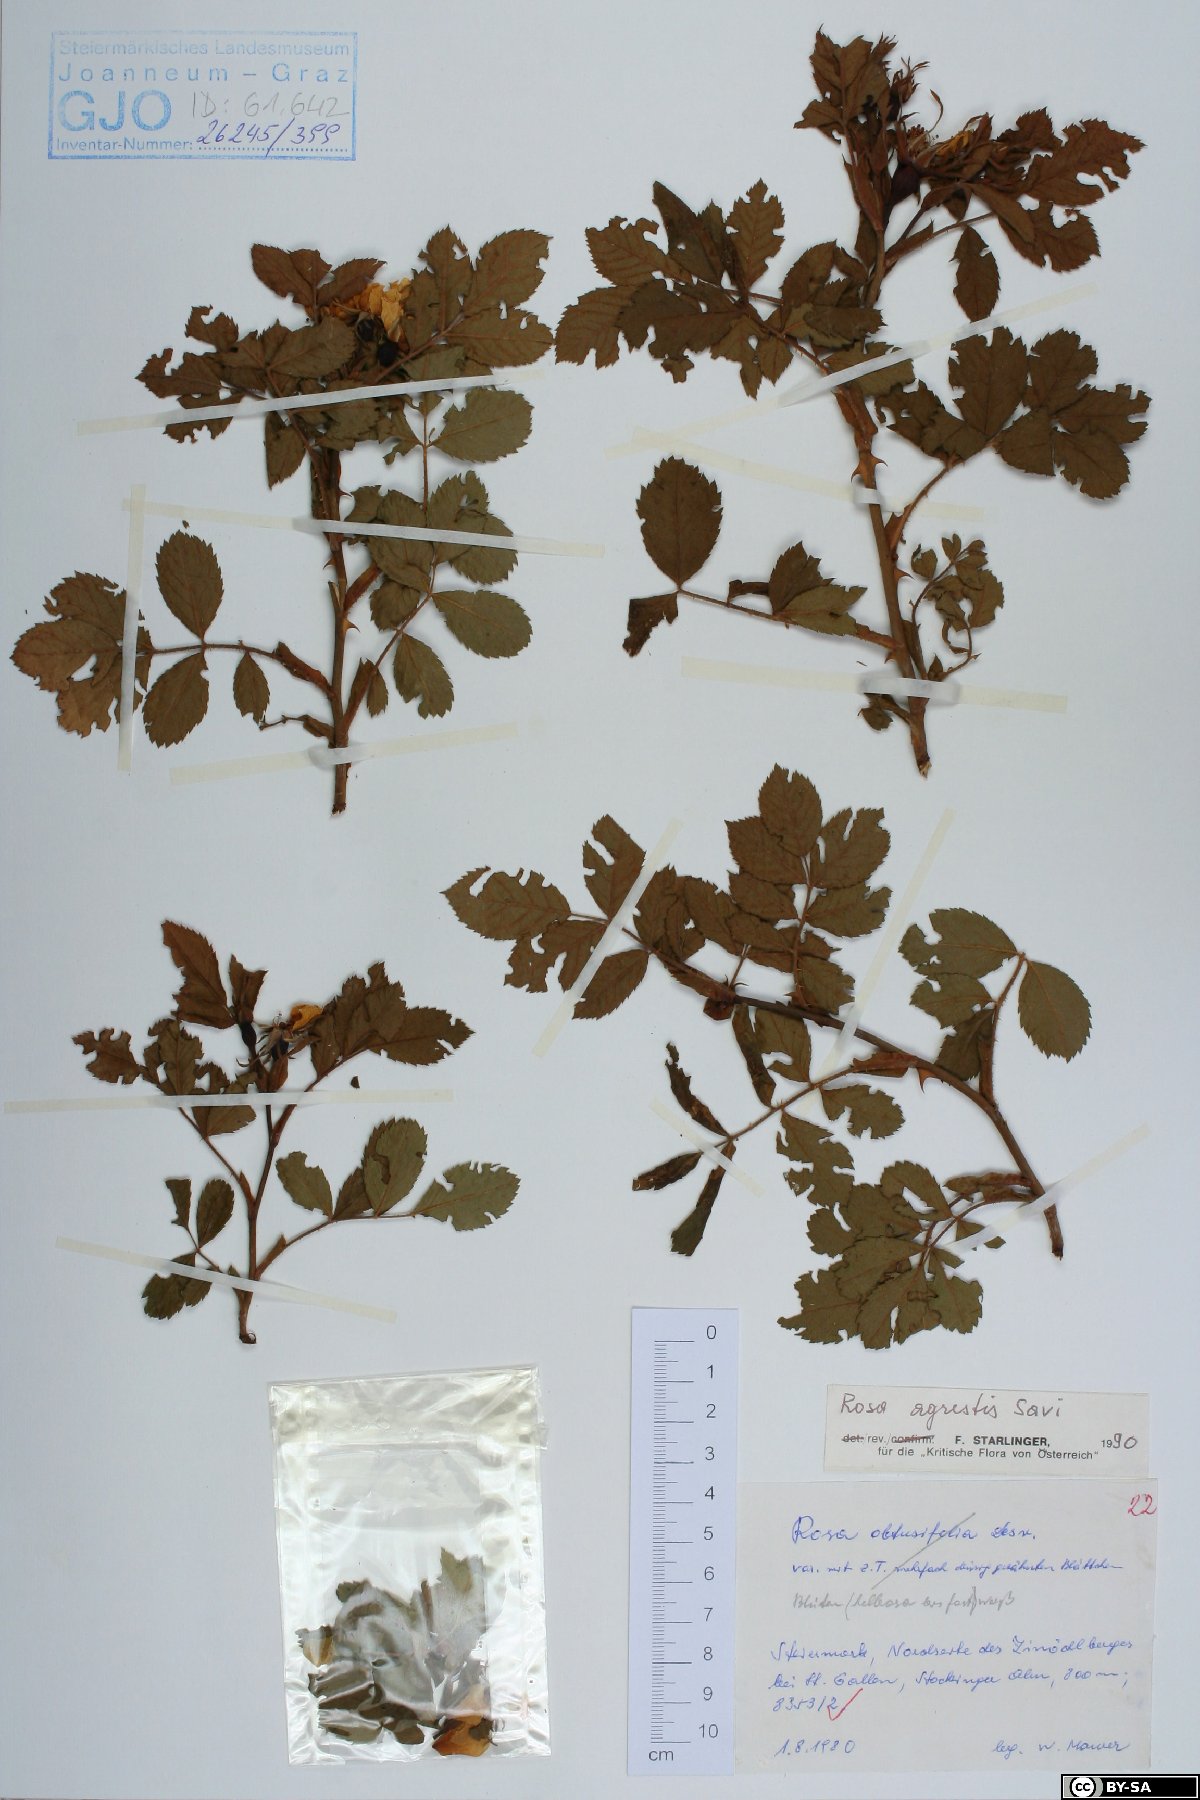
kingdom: Plantae
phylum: Tracheophyta
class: Magnoliopsida
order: Rosales
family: Rosaceae
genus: Rosa
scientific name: Rosa agrestis
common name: Fieldbriar
